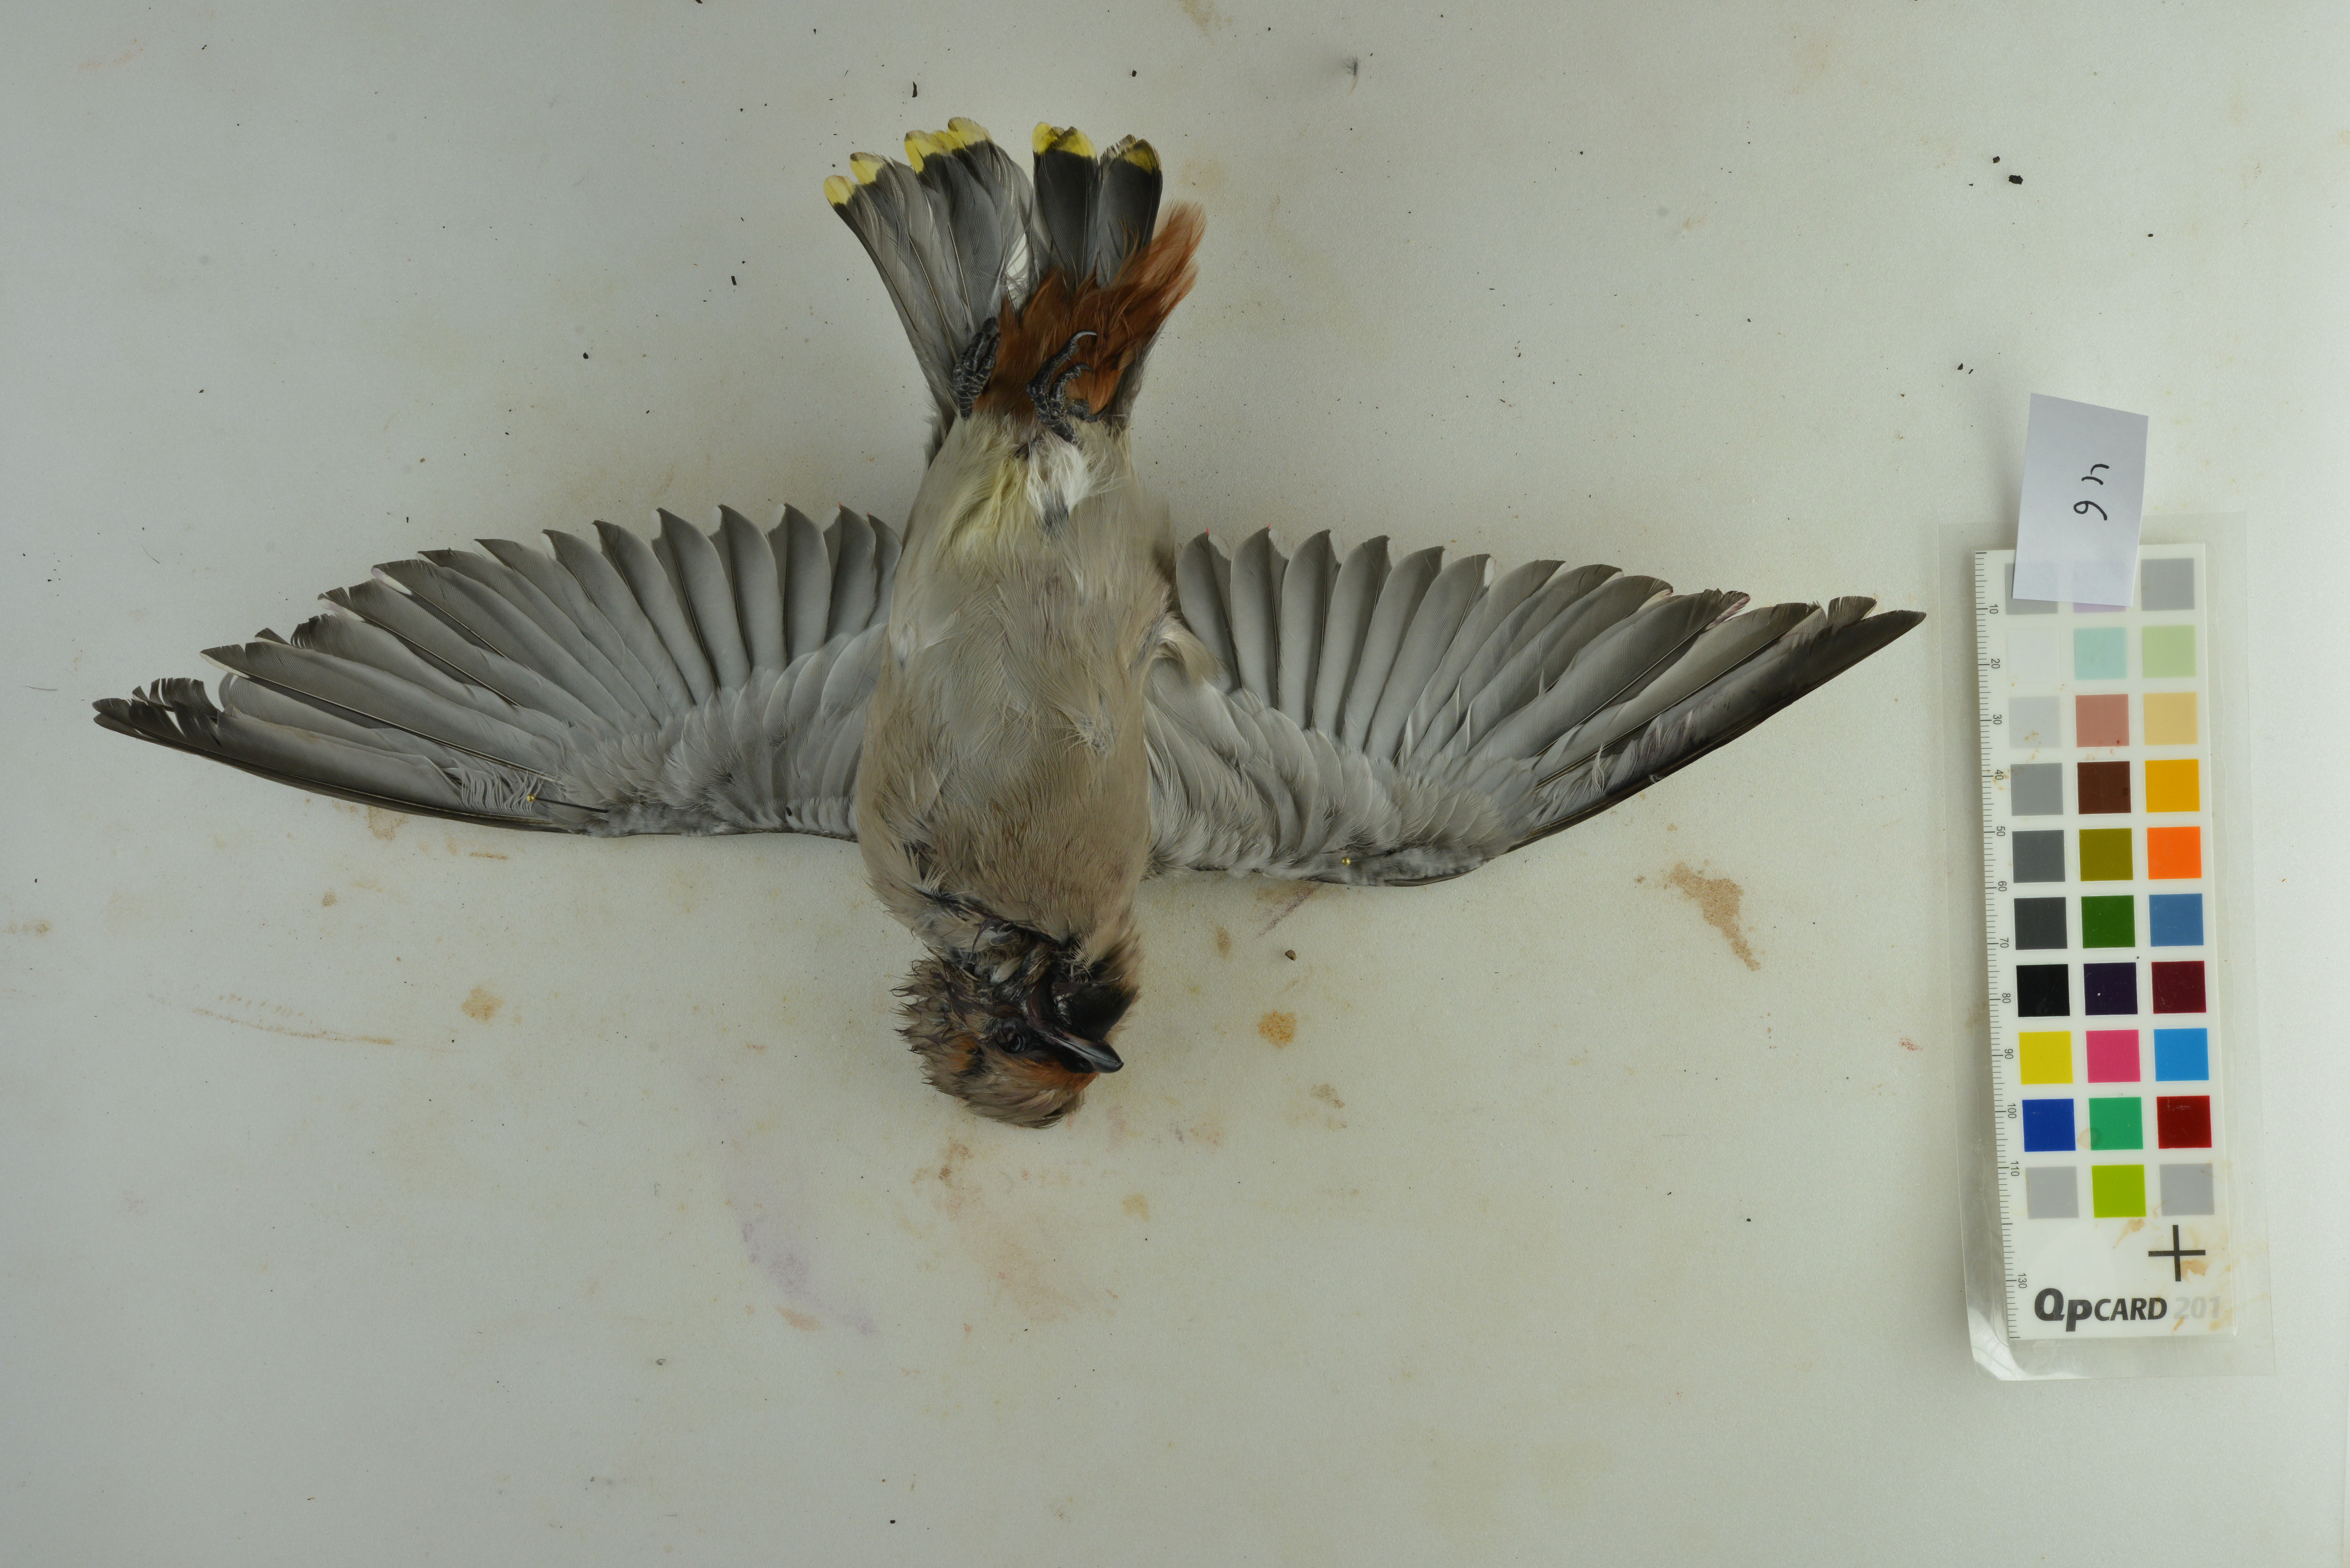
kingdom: Animalia
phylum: Chordata
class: Aves
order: Passeriformes
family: Bombycillidae
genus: Bombycilla
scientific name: Bombycilla garrulus
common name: Bohemian waxwing
